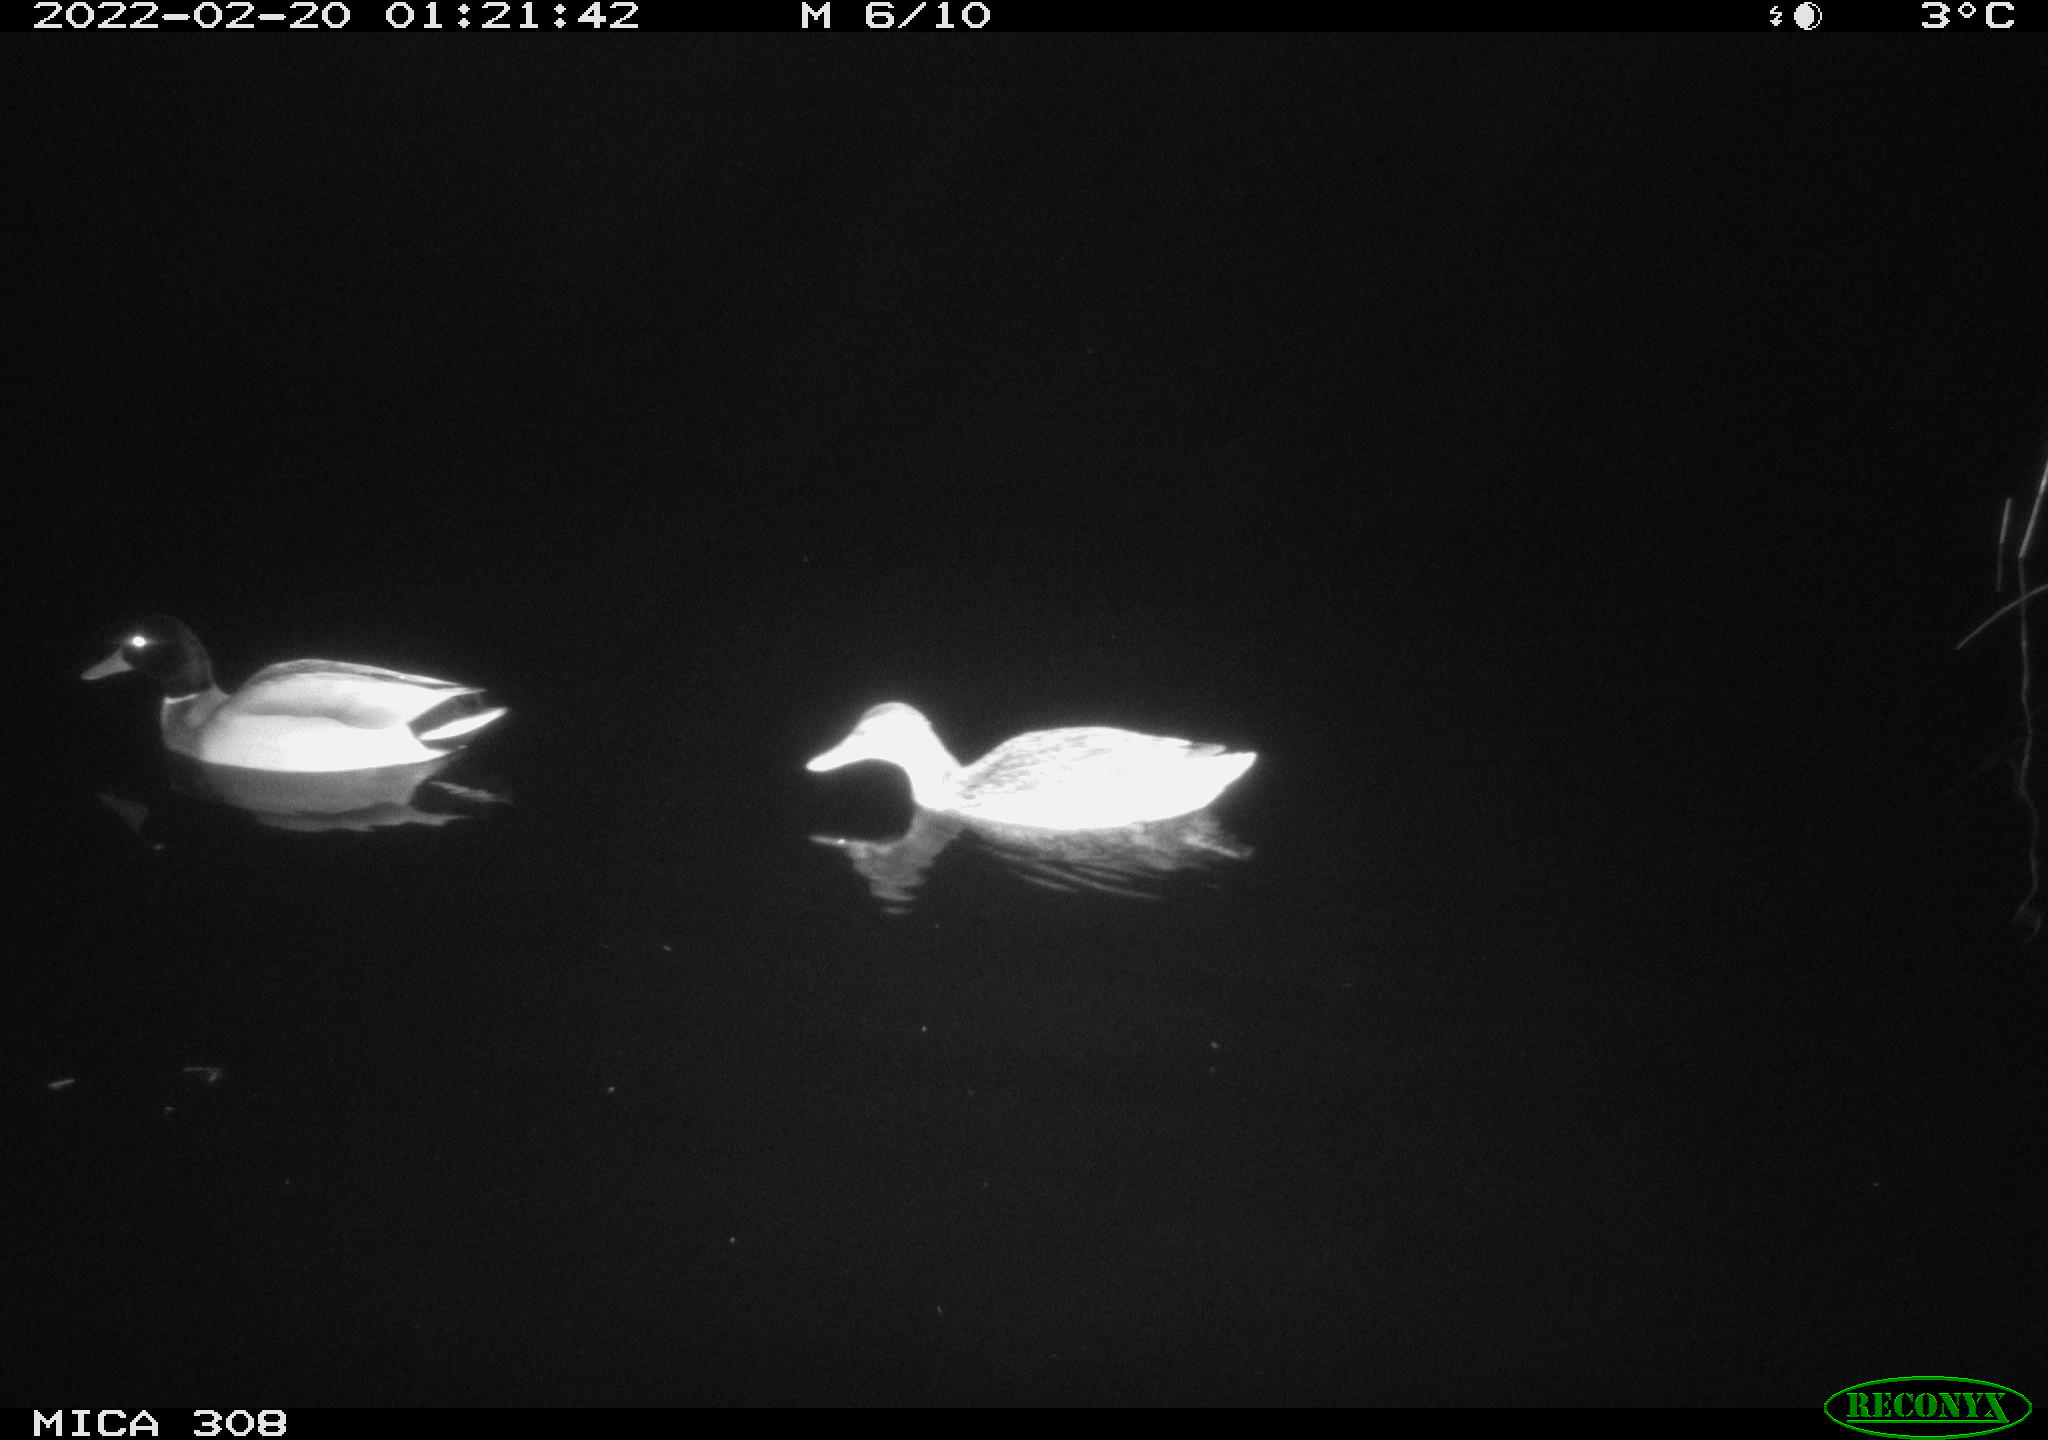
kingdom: Animalia
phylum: Chordata
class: Aves
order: Anseriformes
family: Anatidae
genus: Anas
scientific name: Anas platyrhynchos
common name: Mallard
